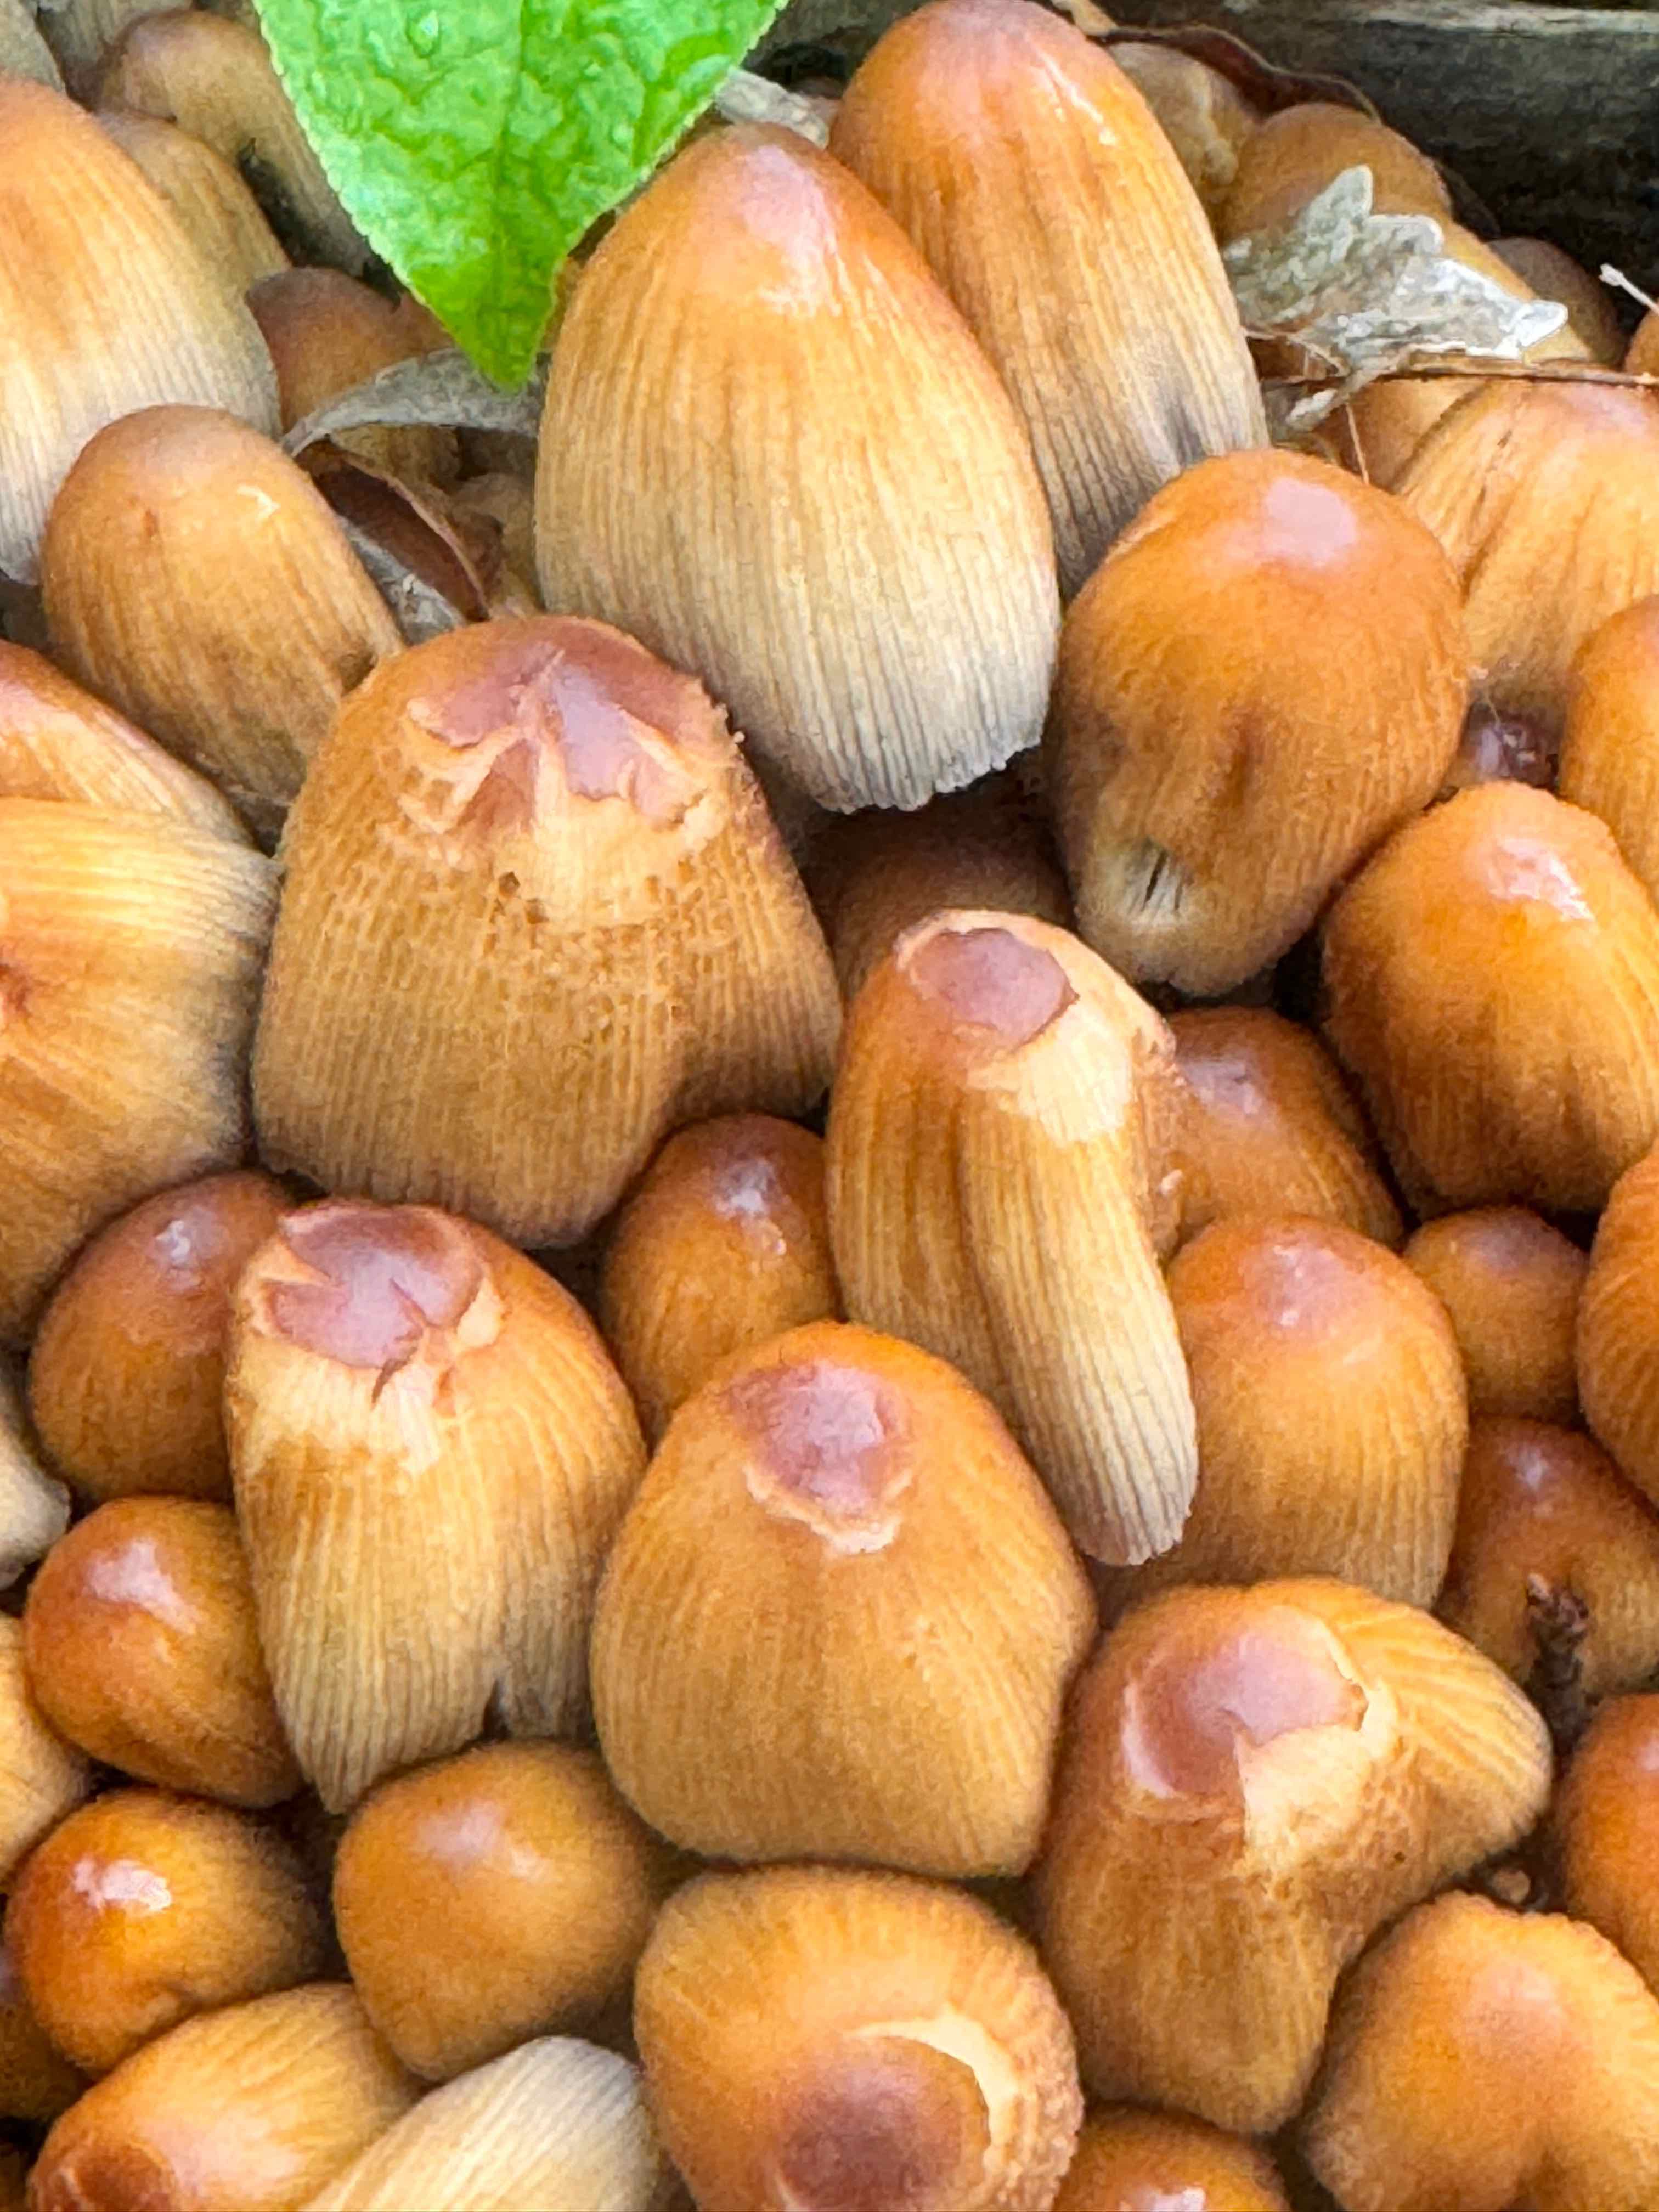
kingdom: Fungi
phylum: Basidiomycota
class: Agaricomycetes
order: Agaricales
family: Psathyrellaceae
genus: Coprinellus
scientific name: Coprinellus micaceus
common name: glimmer-blækhat
